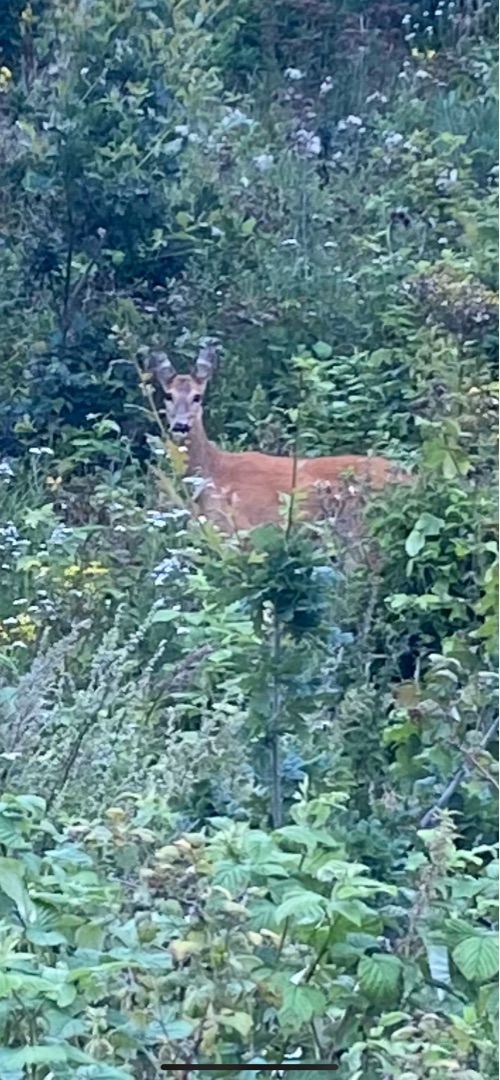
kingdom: Animalia
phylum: Chordata
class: Mammalia
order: Artiodactyla
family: Cervidae
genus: Capreolus
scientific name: Capreolus capreolus
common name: Rådyr
